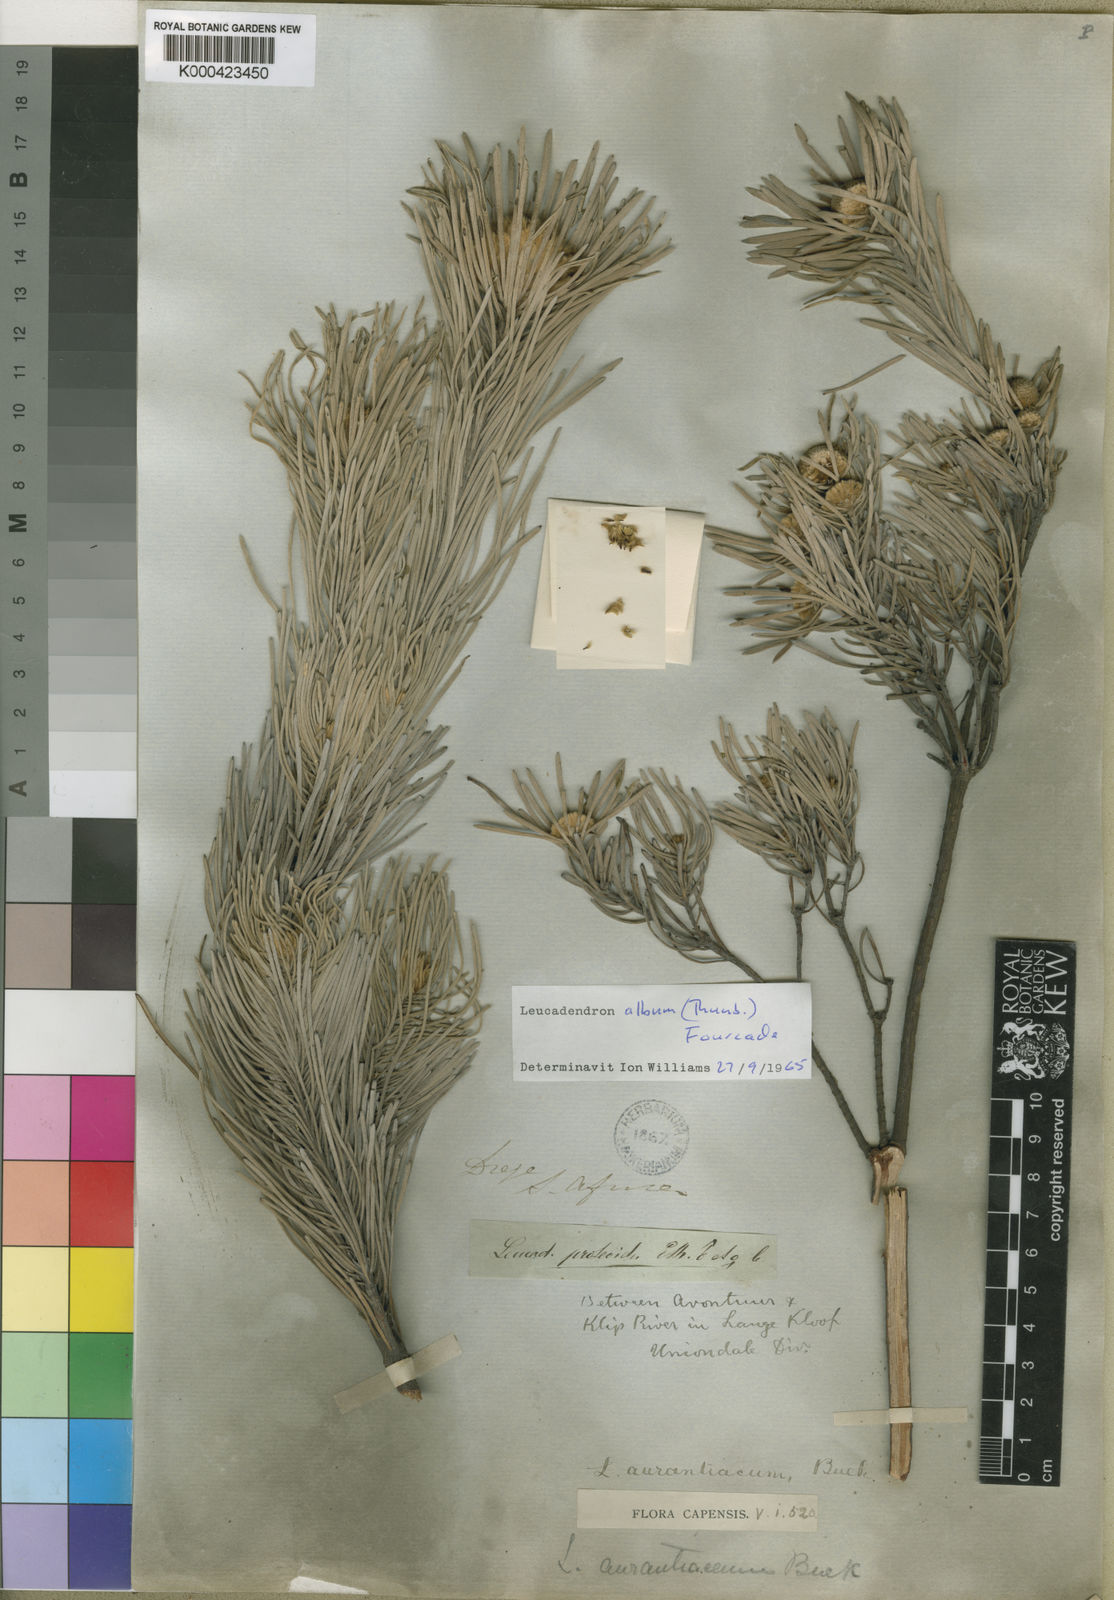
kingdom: Plantae
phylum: Tracheophyta
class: Magnoliopsida
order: Proteales
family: Proteaceae
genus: Leucadendron
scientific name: Leucadendron album
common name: Linear-leaf conebush
